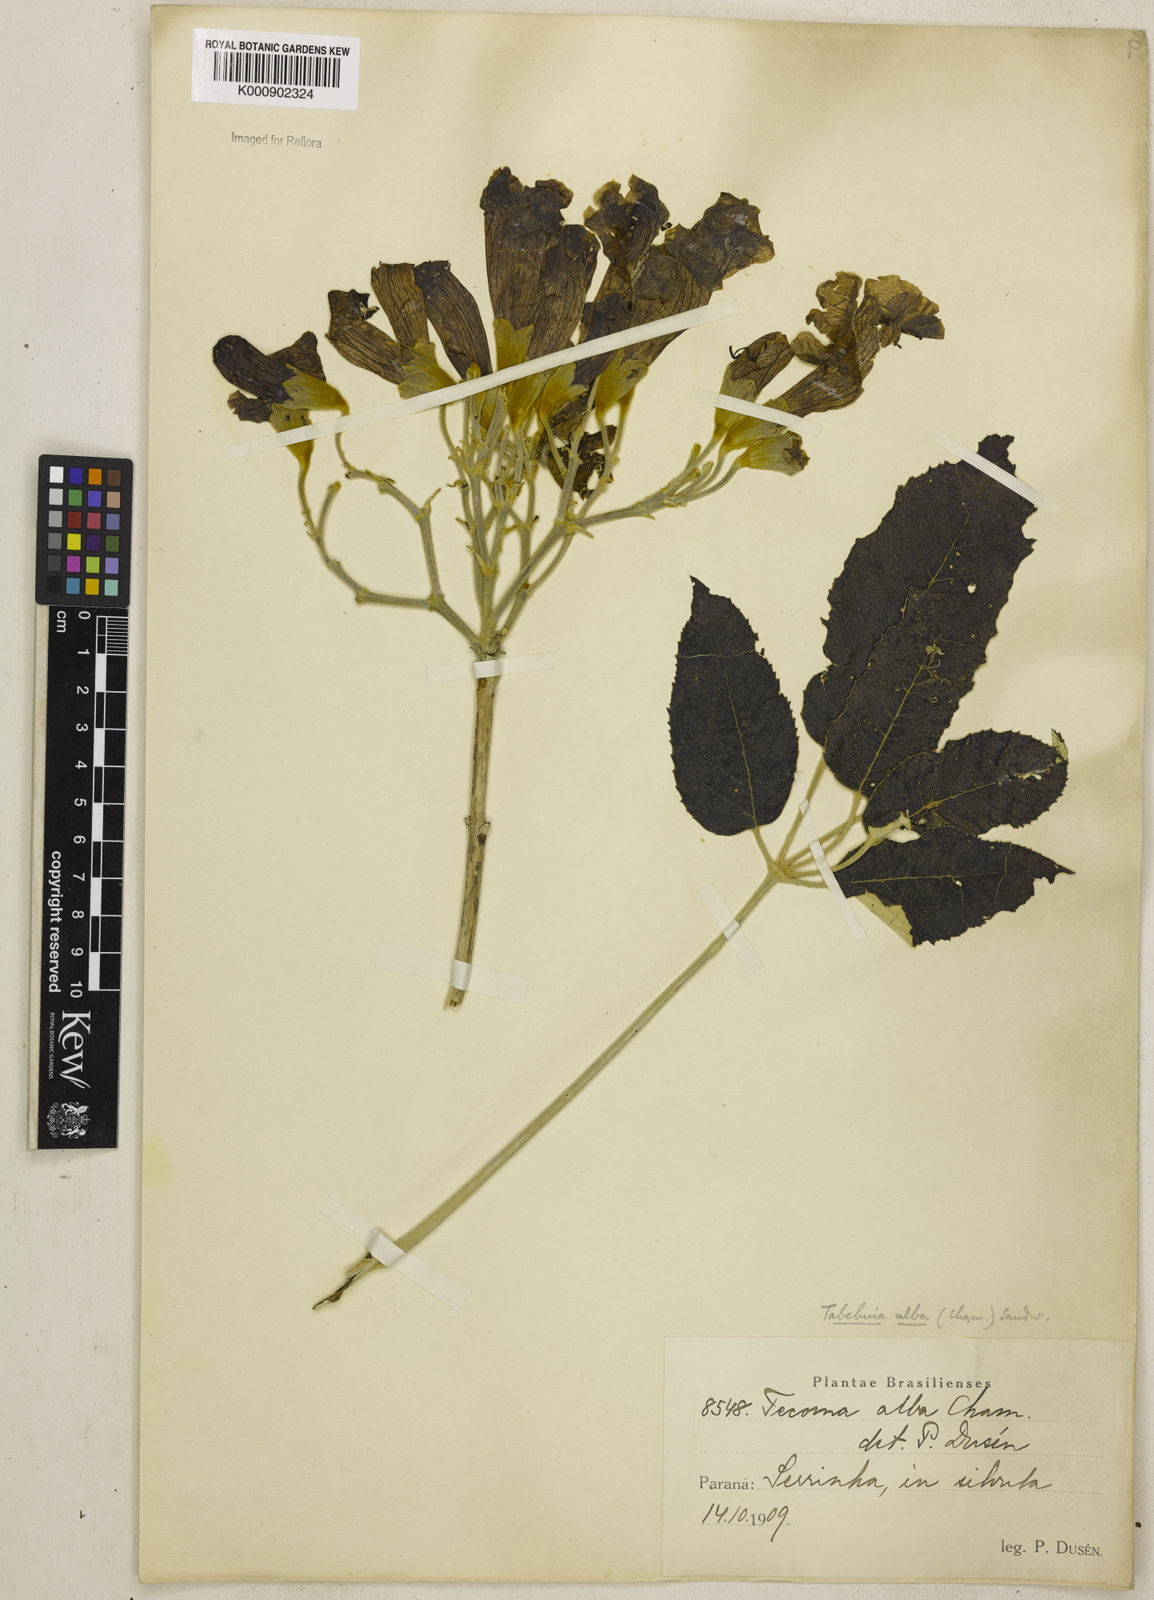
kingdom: Plantae
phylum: Tracheophyta
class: Magnoliopsida
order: Lamiales
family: Bignoniaceae
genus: Handroanthus
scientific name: Handroanthus albus
